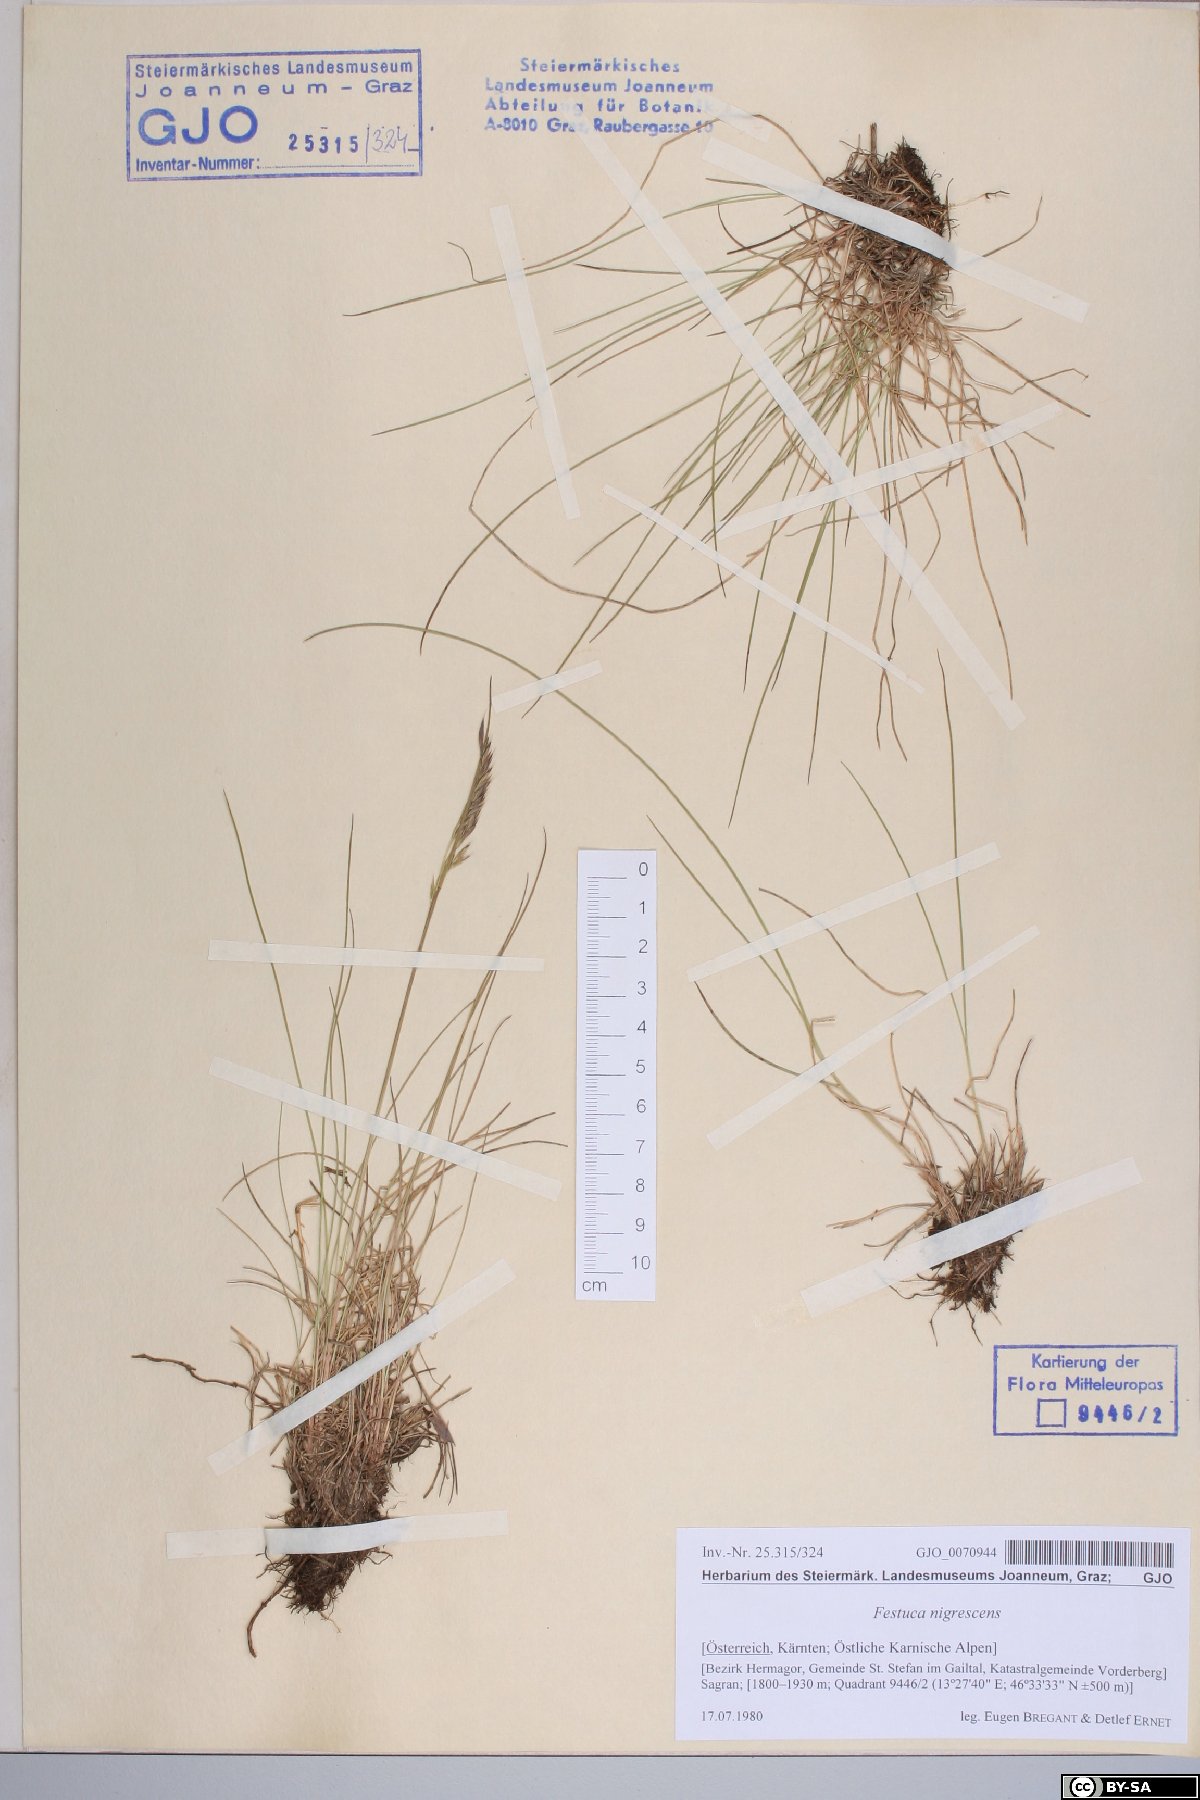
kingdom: Plantae
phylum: Tracheophyta
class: Liliopsida
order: Poales
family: Poaceae
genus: Festuca
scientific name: Festuca nigrescens
